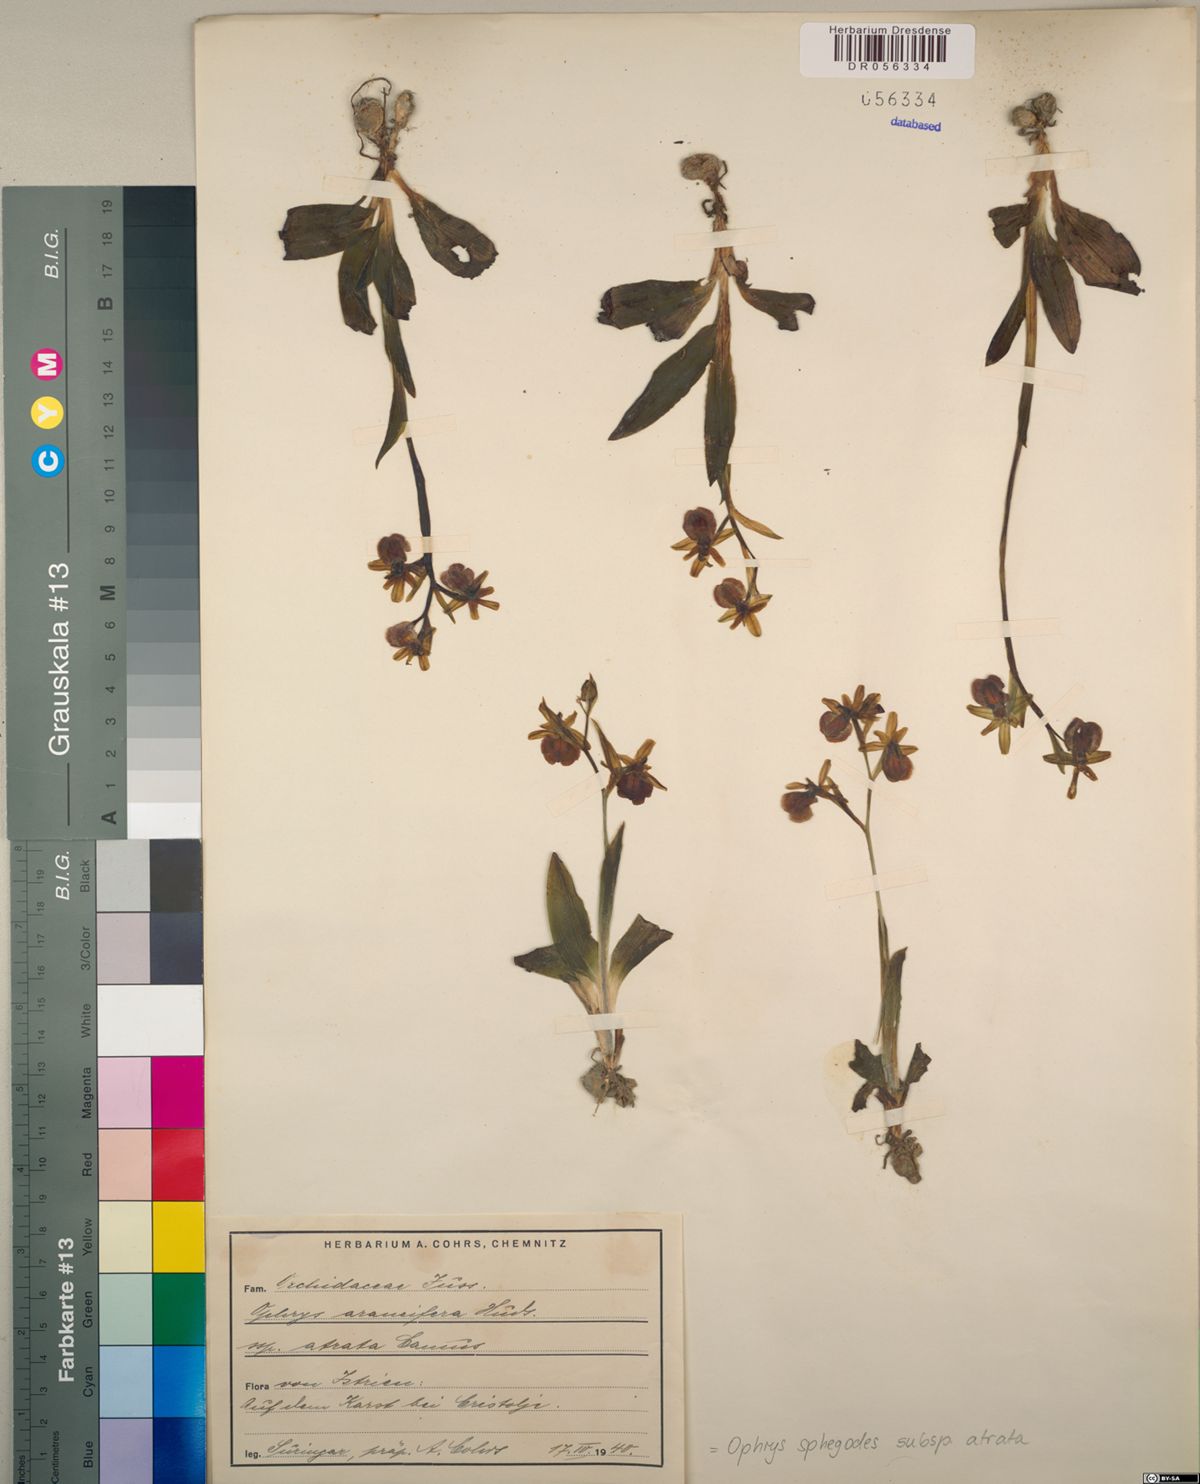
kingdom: Plantae
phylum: Tracheophyta
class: Liliopsida
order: Asparagales
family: Orchidaceae
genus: Ophrys
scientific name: Ophrys sphegodes
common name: Early spider-orchid
